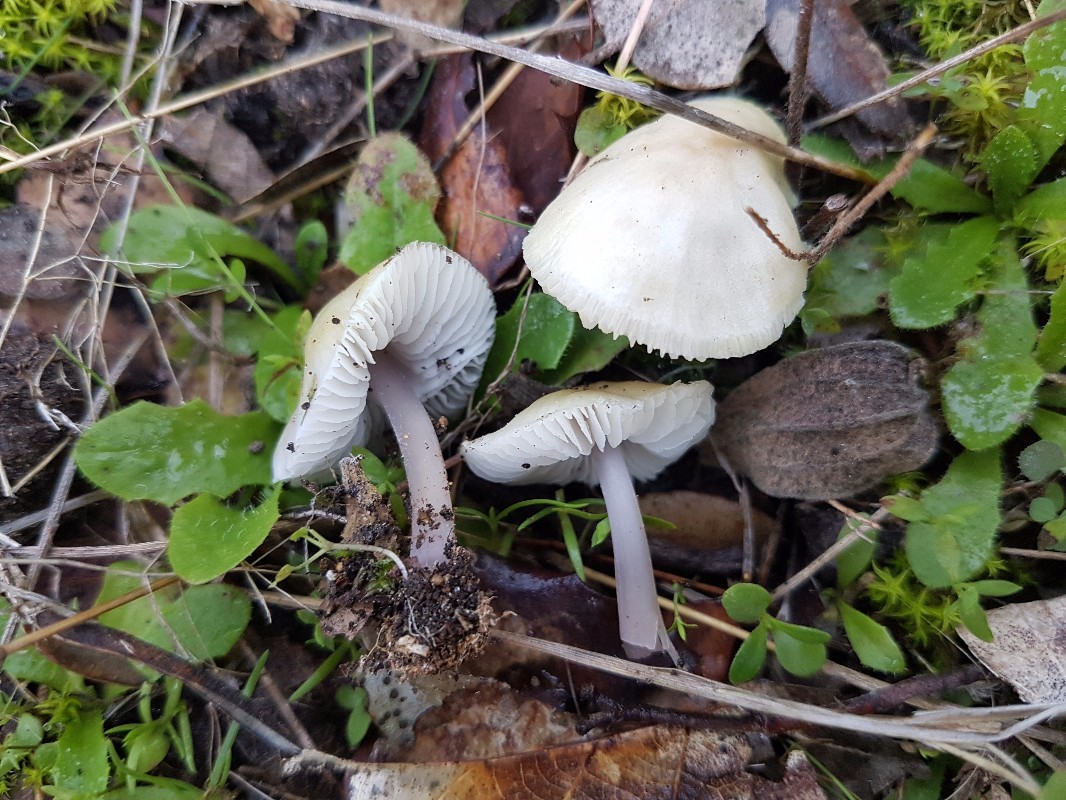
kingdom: Fungi
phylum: Basidiomycota
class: Agaricomycetes
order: Agaricales
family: Mycenaceae
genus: Mycena
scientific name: Mycena luteovariegata
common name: lillagul huesvamp
